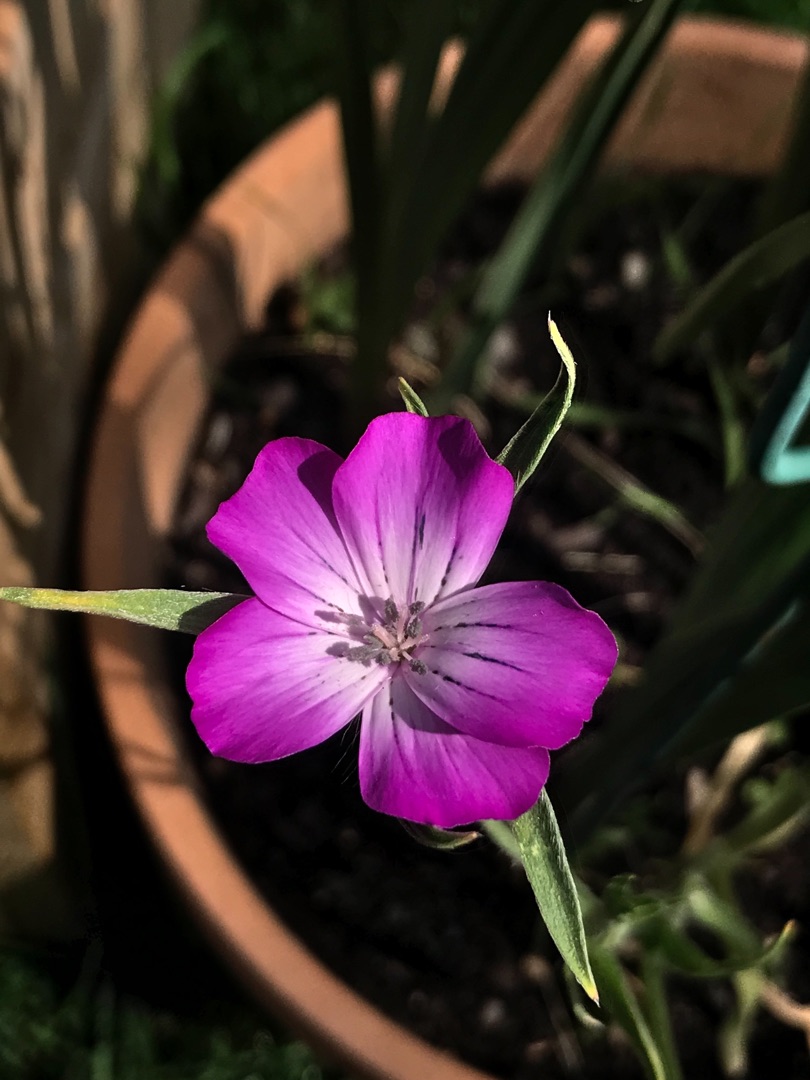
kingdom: Plantae
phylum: Tracheophyta
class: Magnoliopsida
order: Caryophyllales
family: Caryophyllaceae
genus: Agrostemma
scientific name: Agrostemma githago
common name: Klinte
